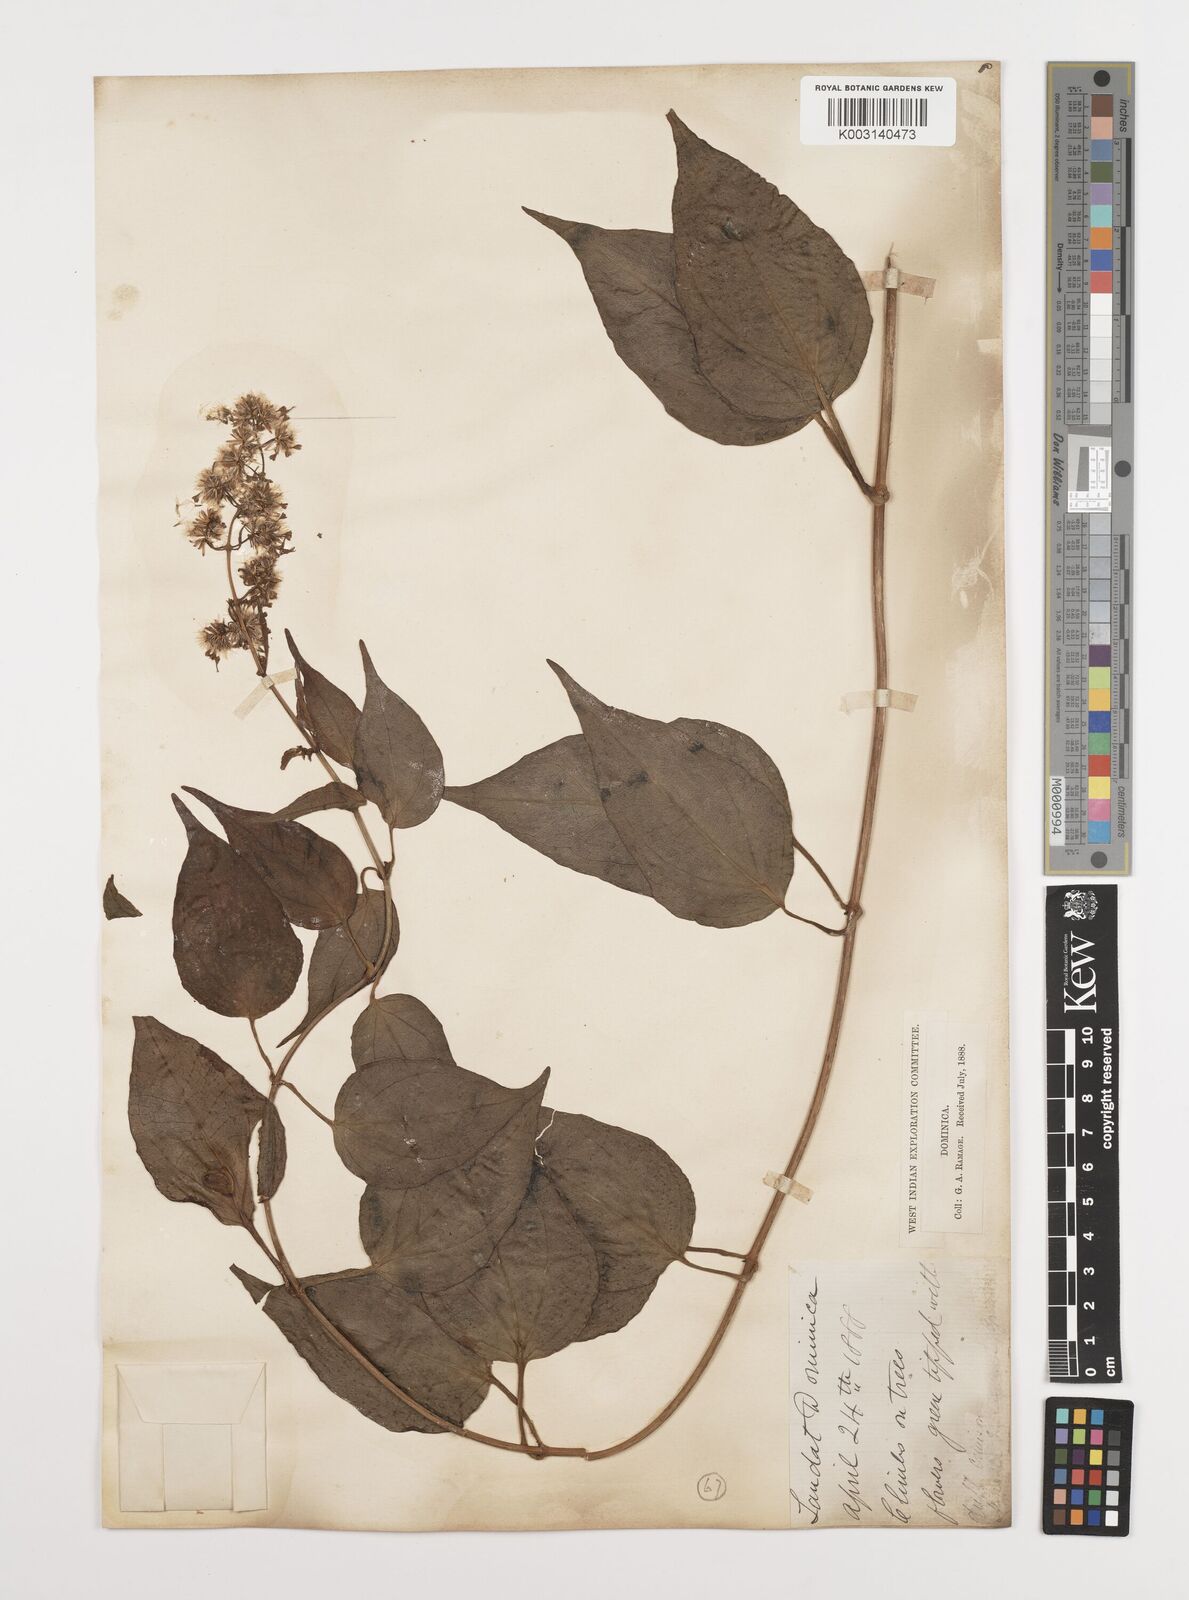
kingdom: Plantae
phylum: Tracheophyta
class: Magnoliopsida
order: Asterales
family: Asteraceae
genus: Mikania
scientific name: Mikania hookeriana
